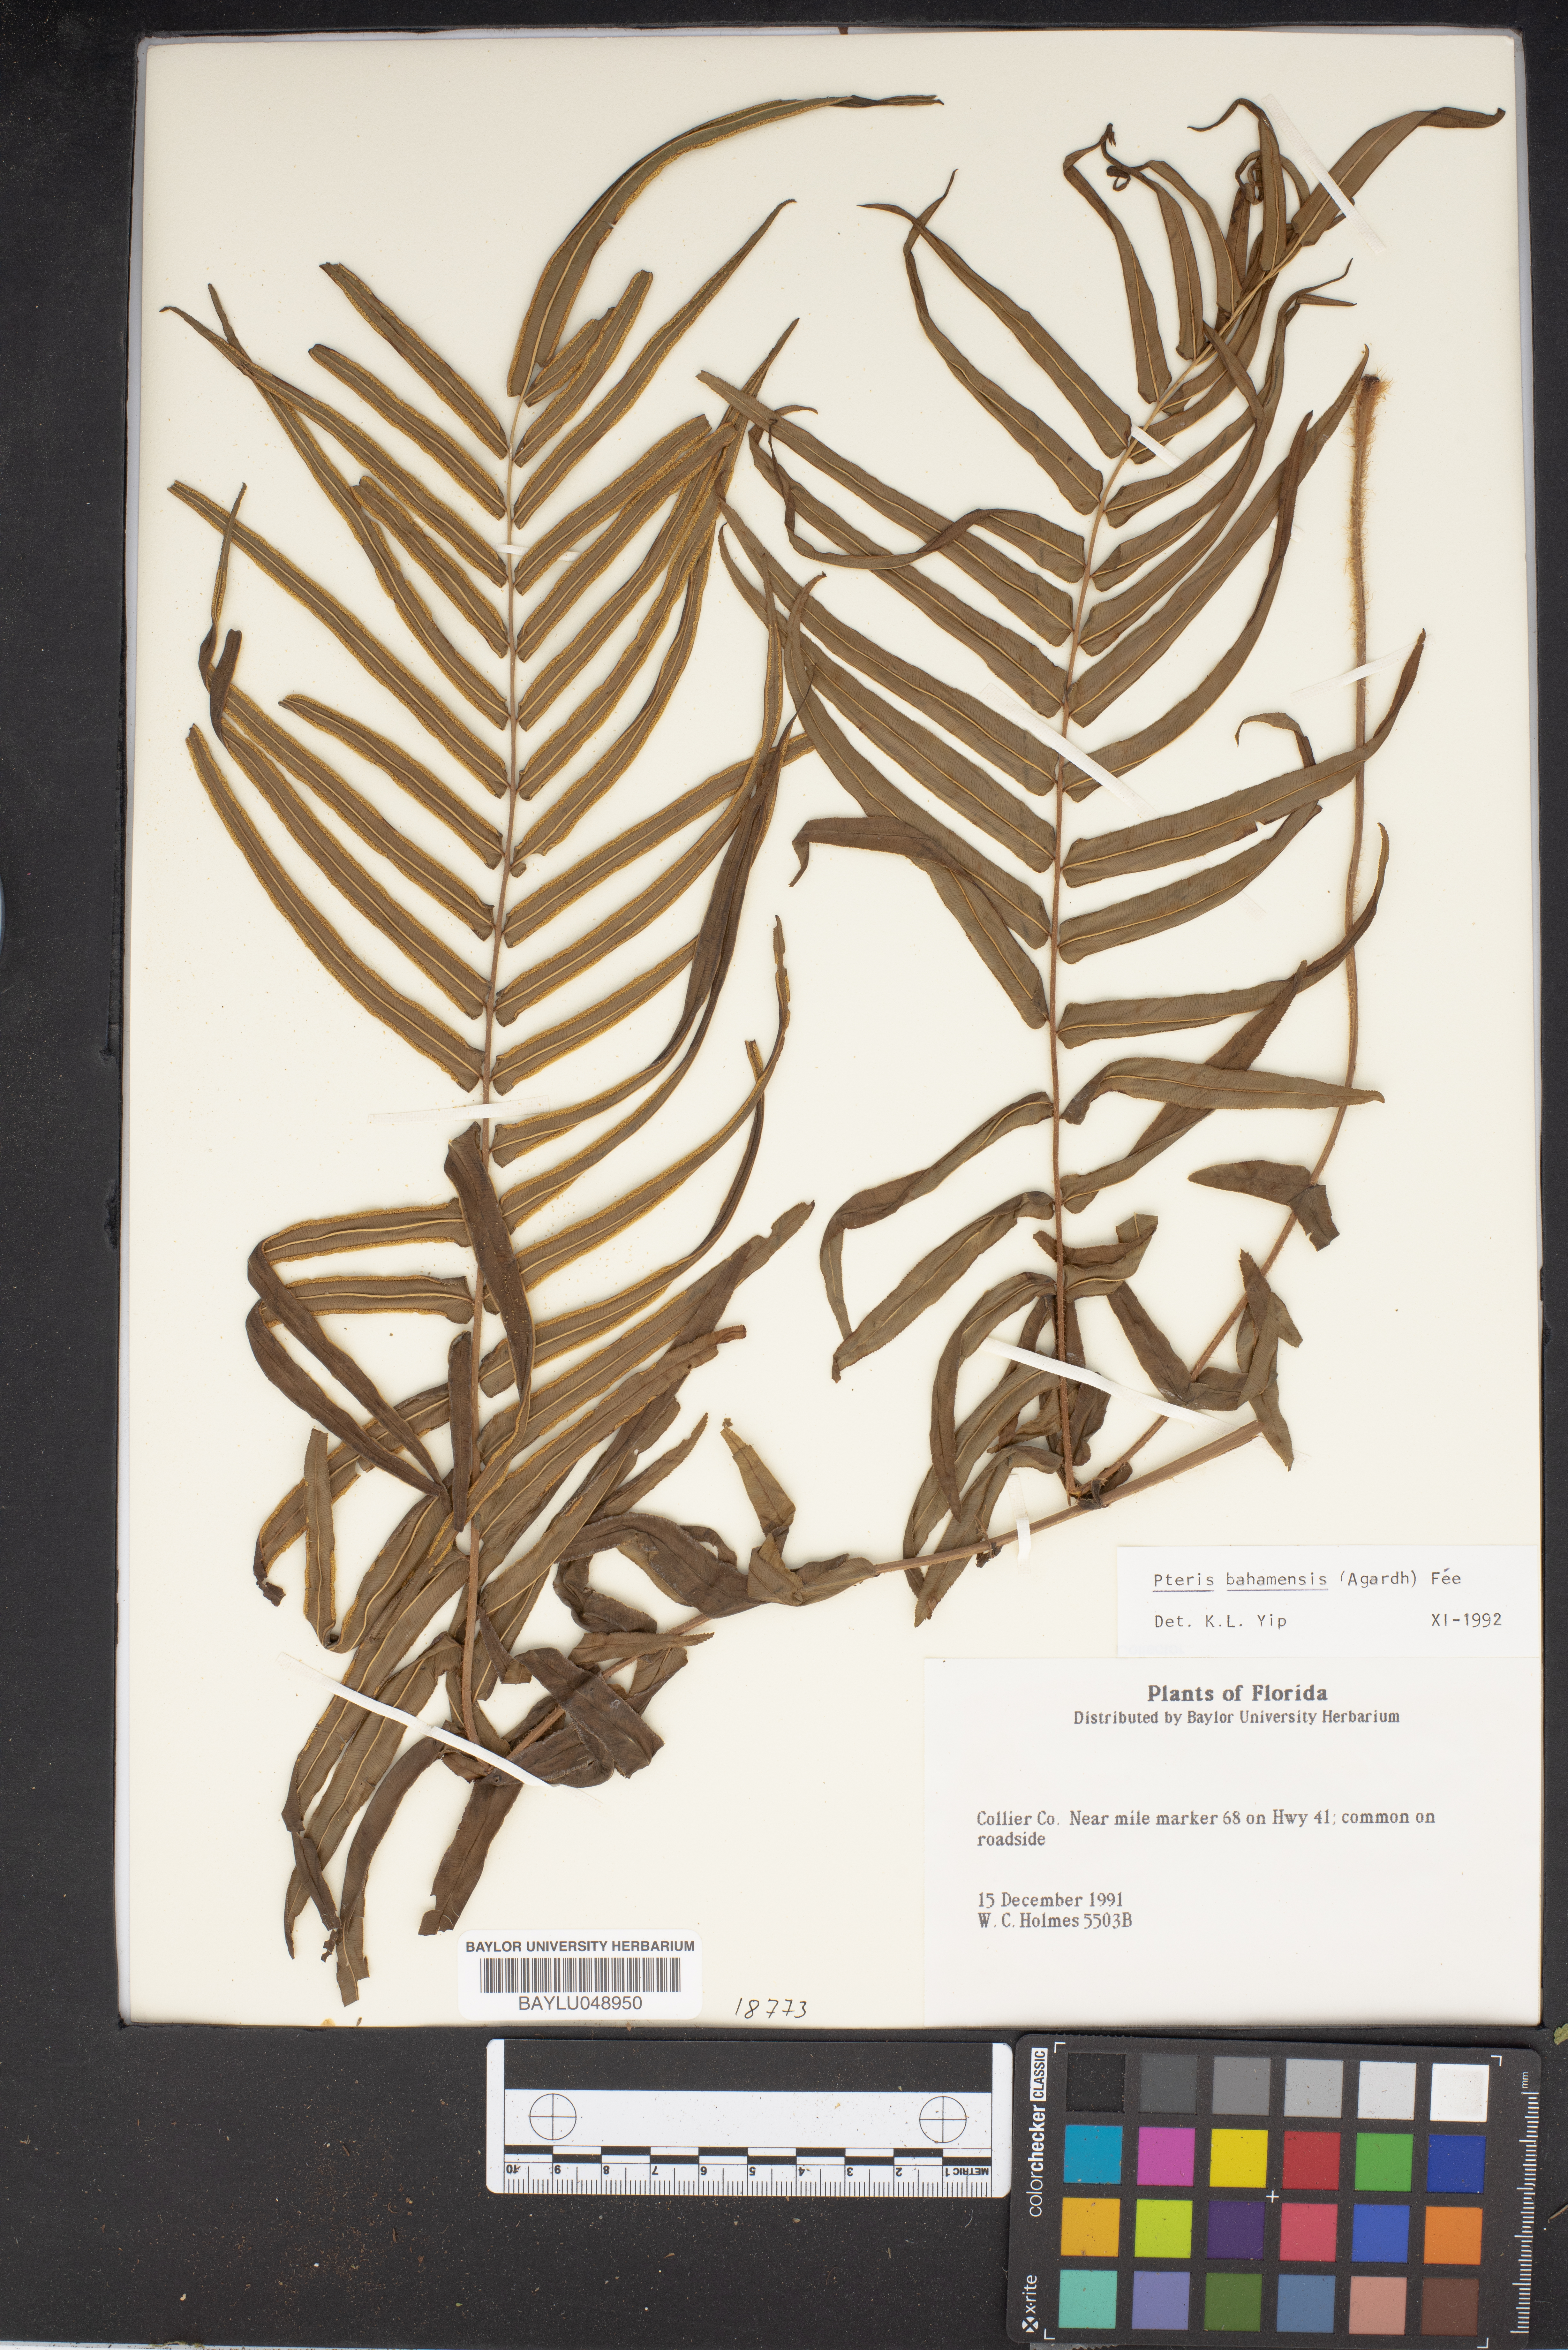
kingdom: Plantae
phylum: Tracheophyta
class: Polypodiopsida
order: Polypodiales
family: Pteridaceae
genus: Pteris
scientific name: Pteris bahamensis
